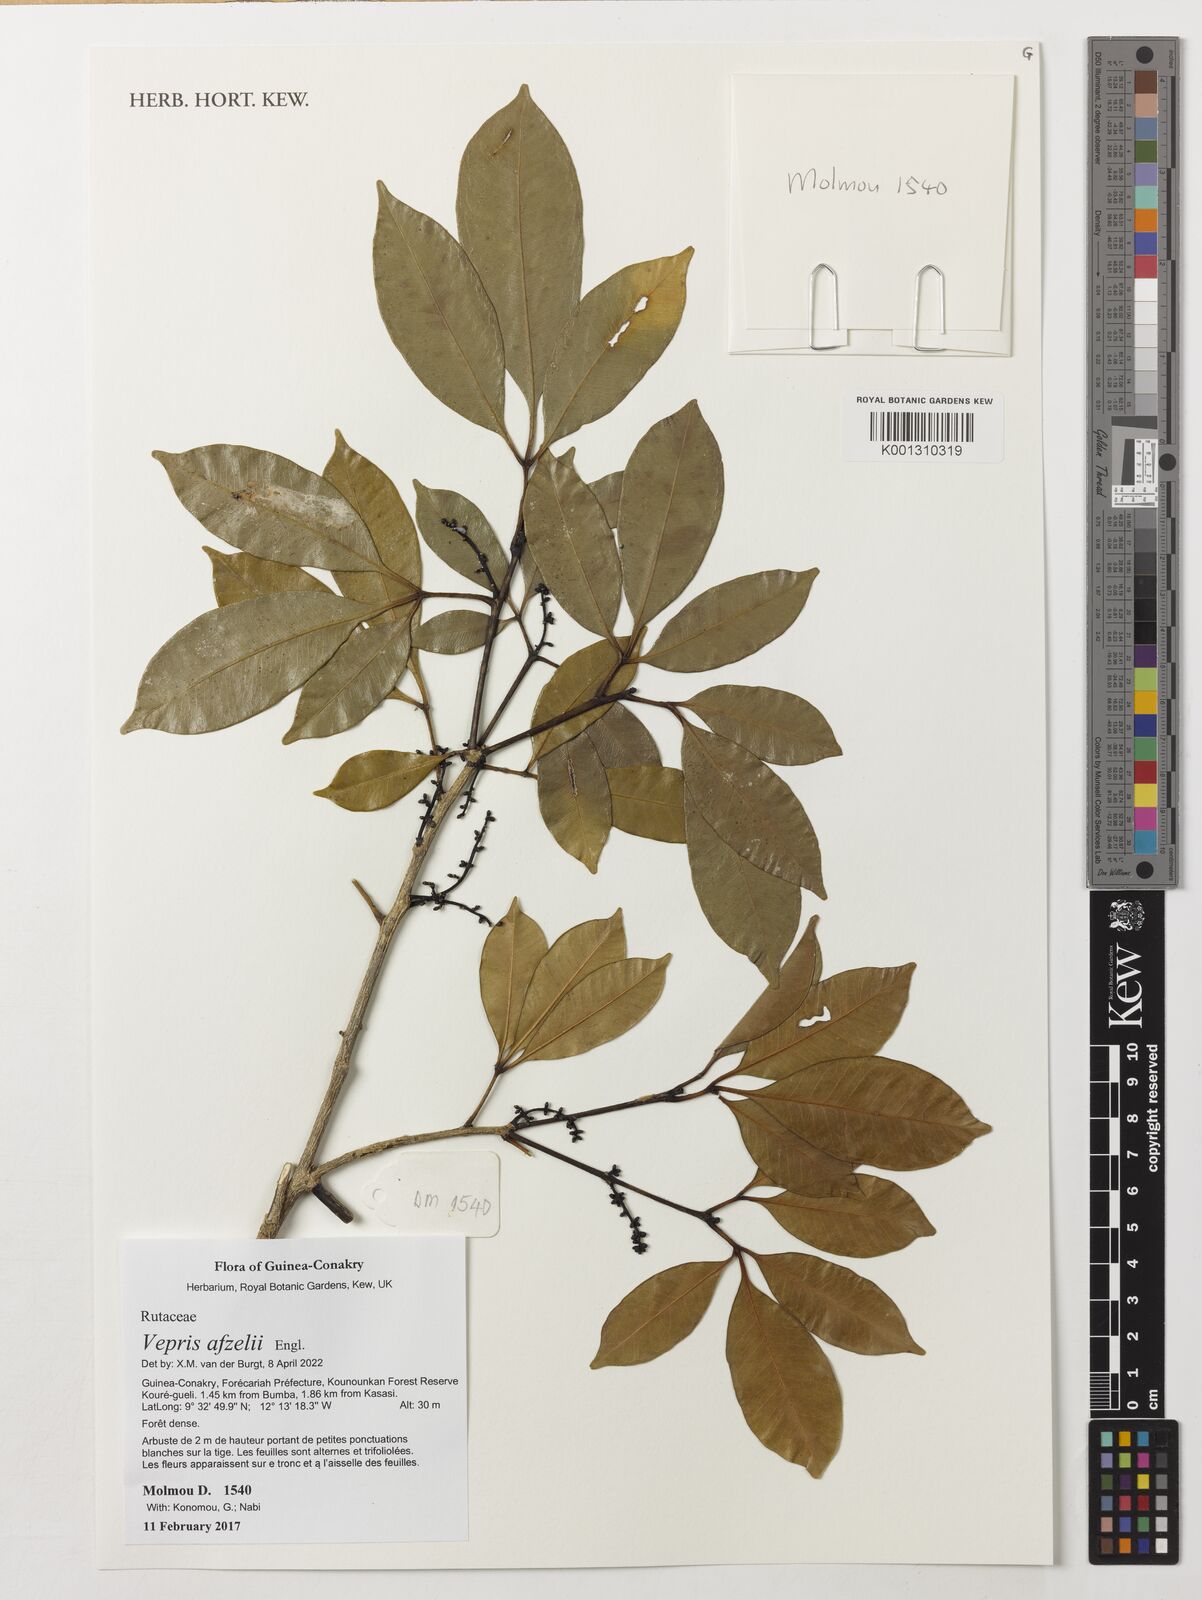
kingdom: Plantae
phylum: Tracheophyta
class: Magnoliopsida
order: Sapindales
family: Rutaceae
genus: Vepris
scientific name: Vepris afzelii
